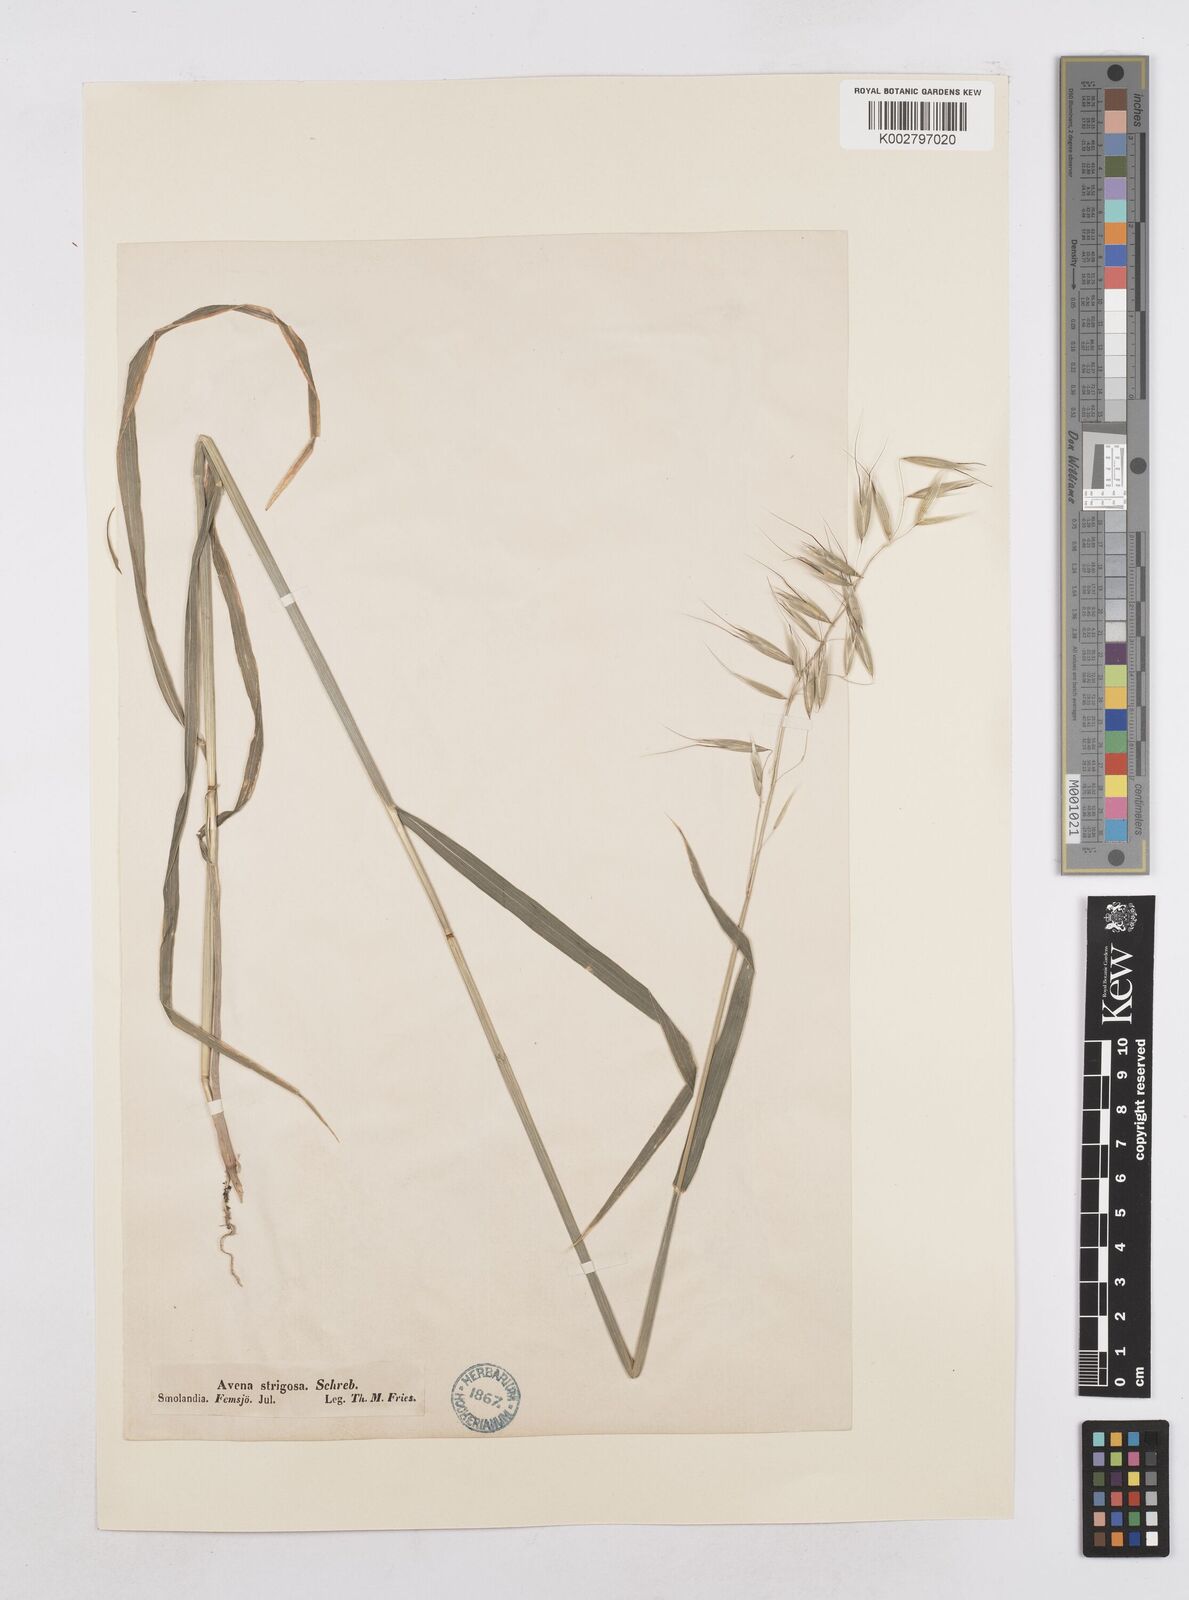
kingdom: Plantae
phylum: Tracheophyta
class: Liliopsida
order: Poales
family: Poaceae
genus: Avena
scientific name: Avena strigosa
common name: Bristle oat
